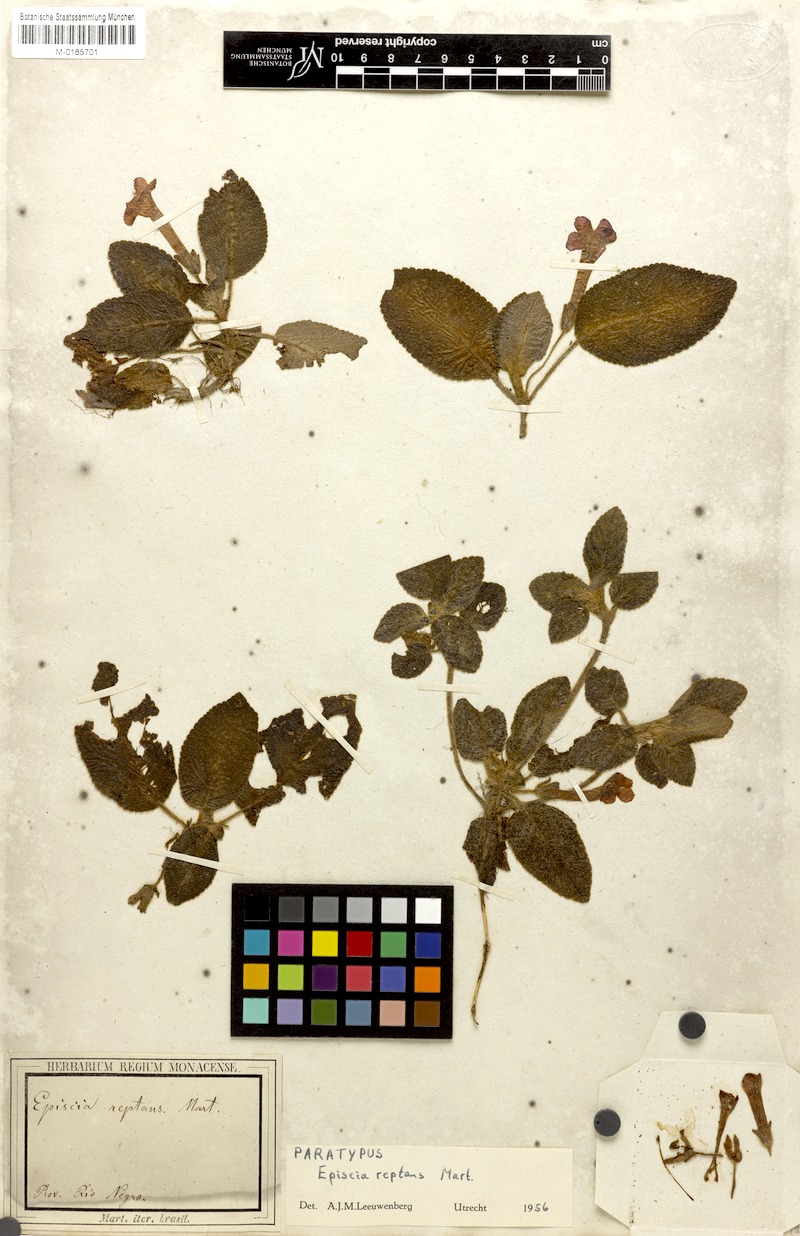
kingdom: Plantae
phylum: Tracheophyta
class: Magnoliopsida
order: Lamiales
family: Gesneriaceae
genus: Episcia
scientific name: Episcia reptans
